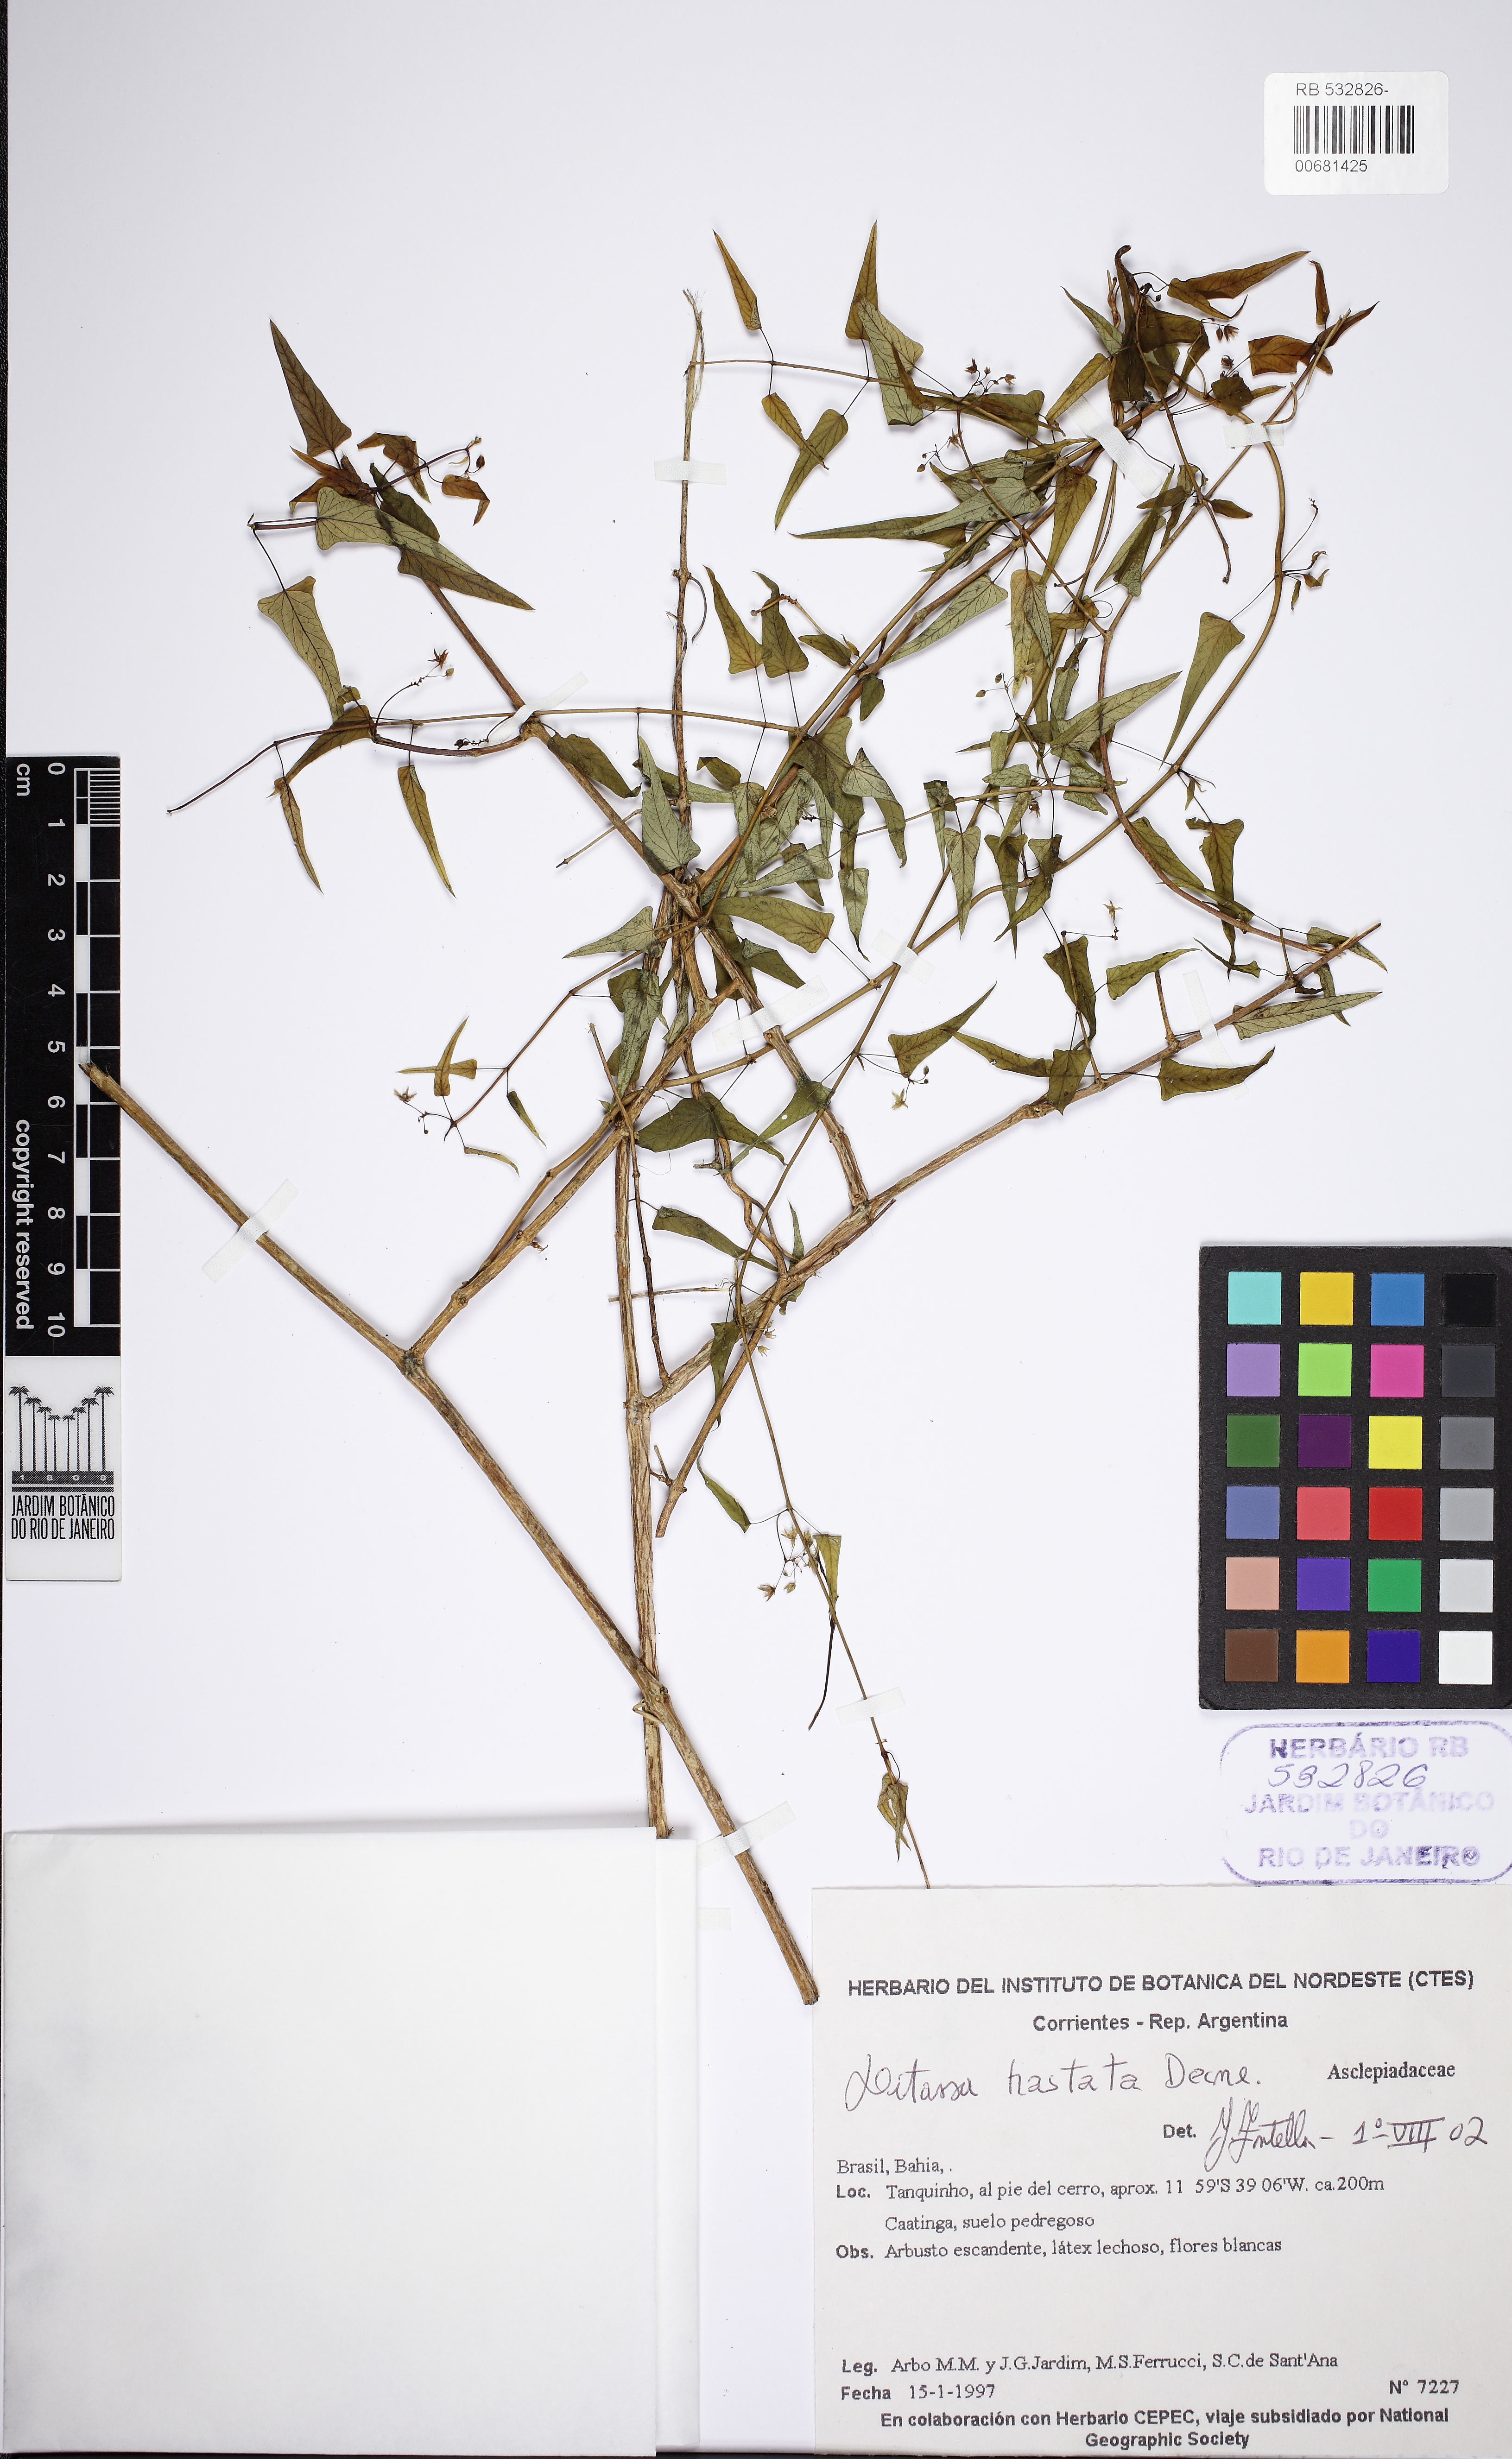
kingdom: Plantae
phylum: Tracheophyta
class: Magnoliopsida
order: Gentianales
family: Apocynaceae
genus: Ditassa
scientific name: Ditassa hastata
